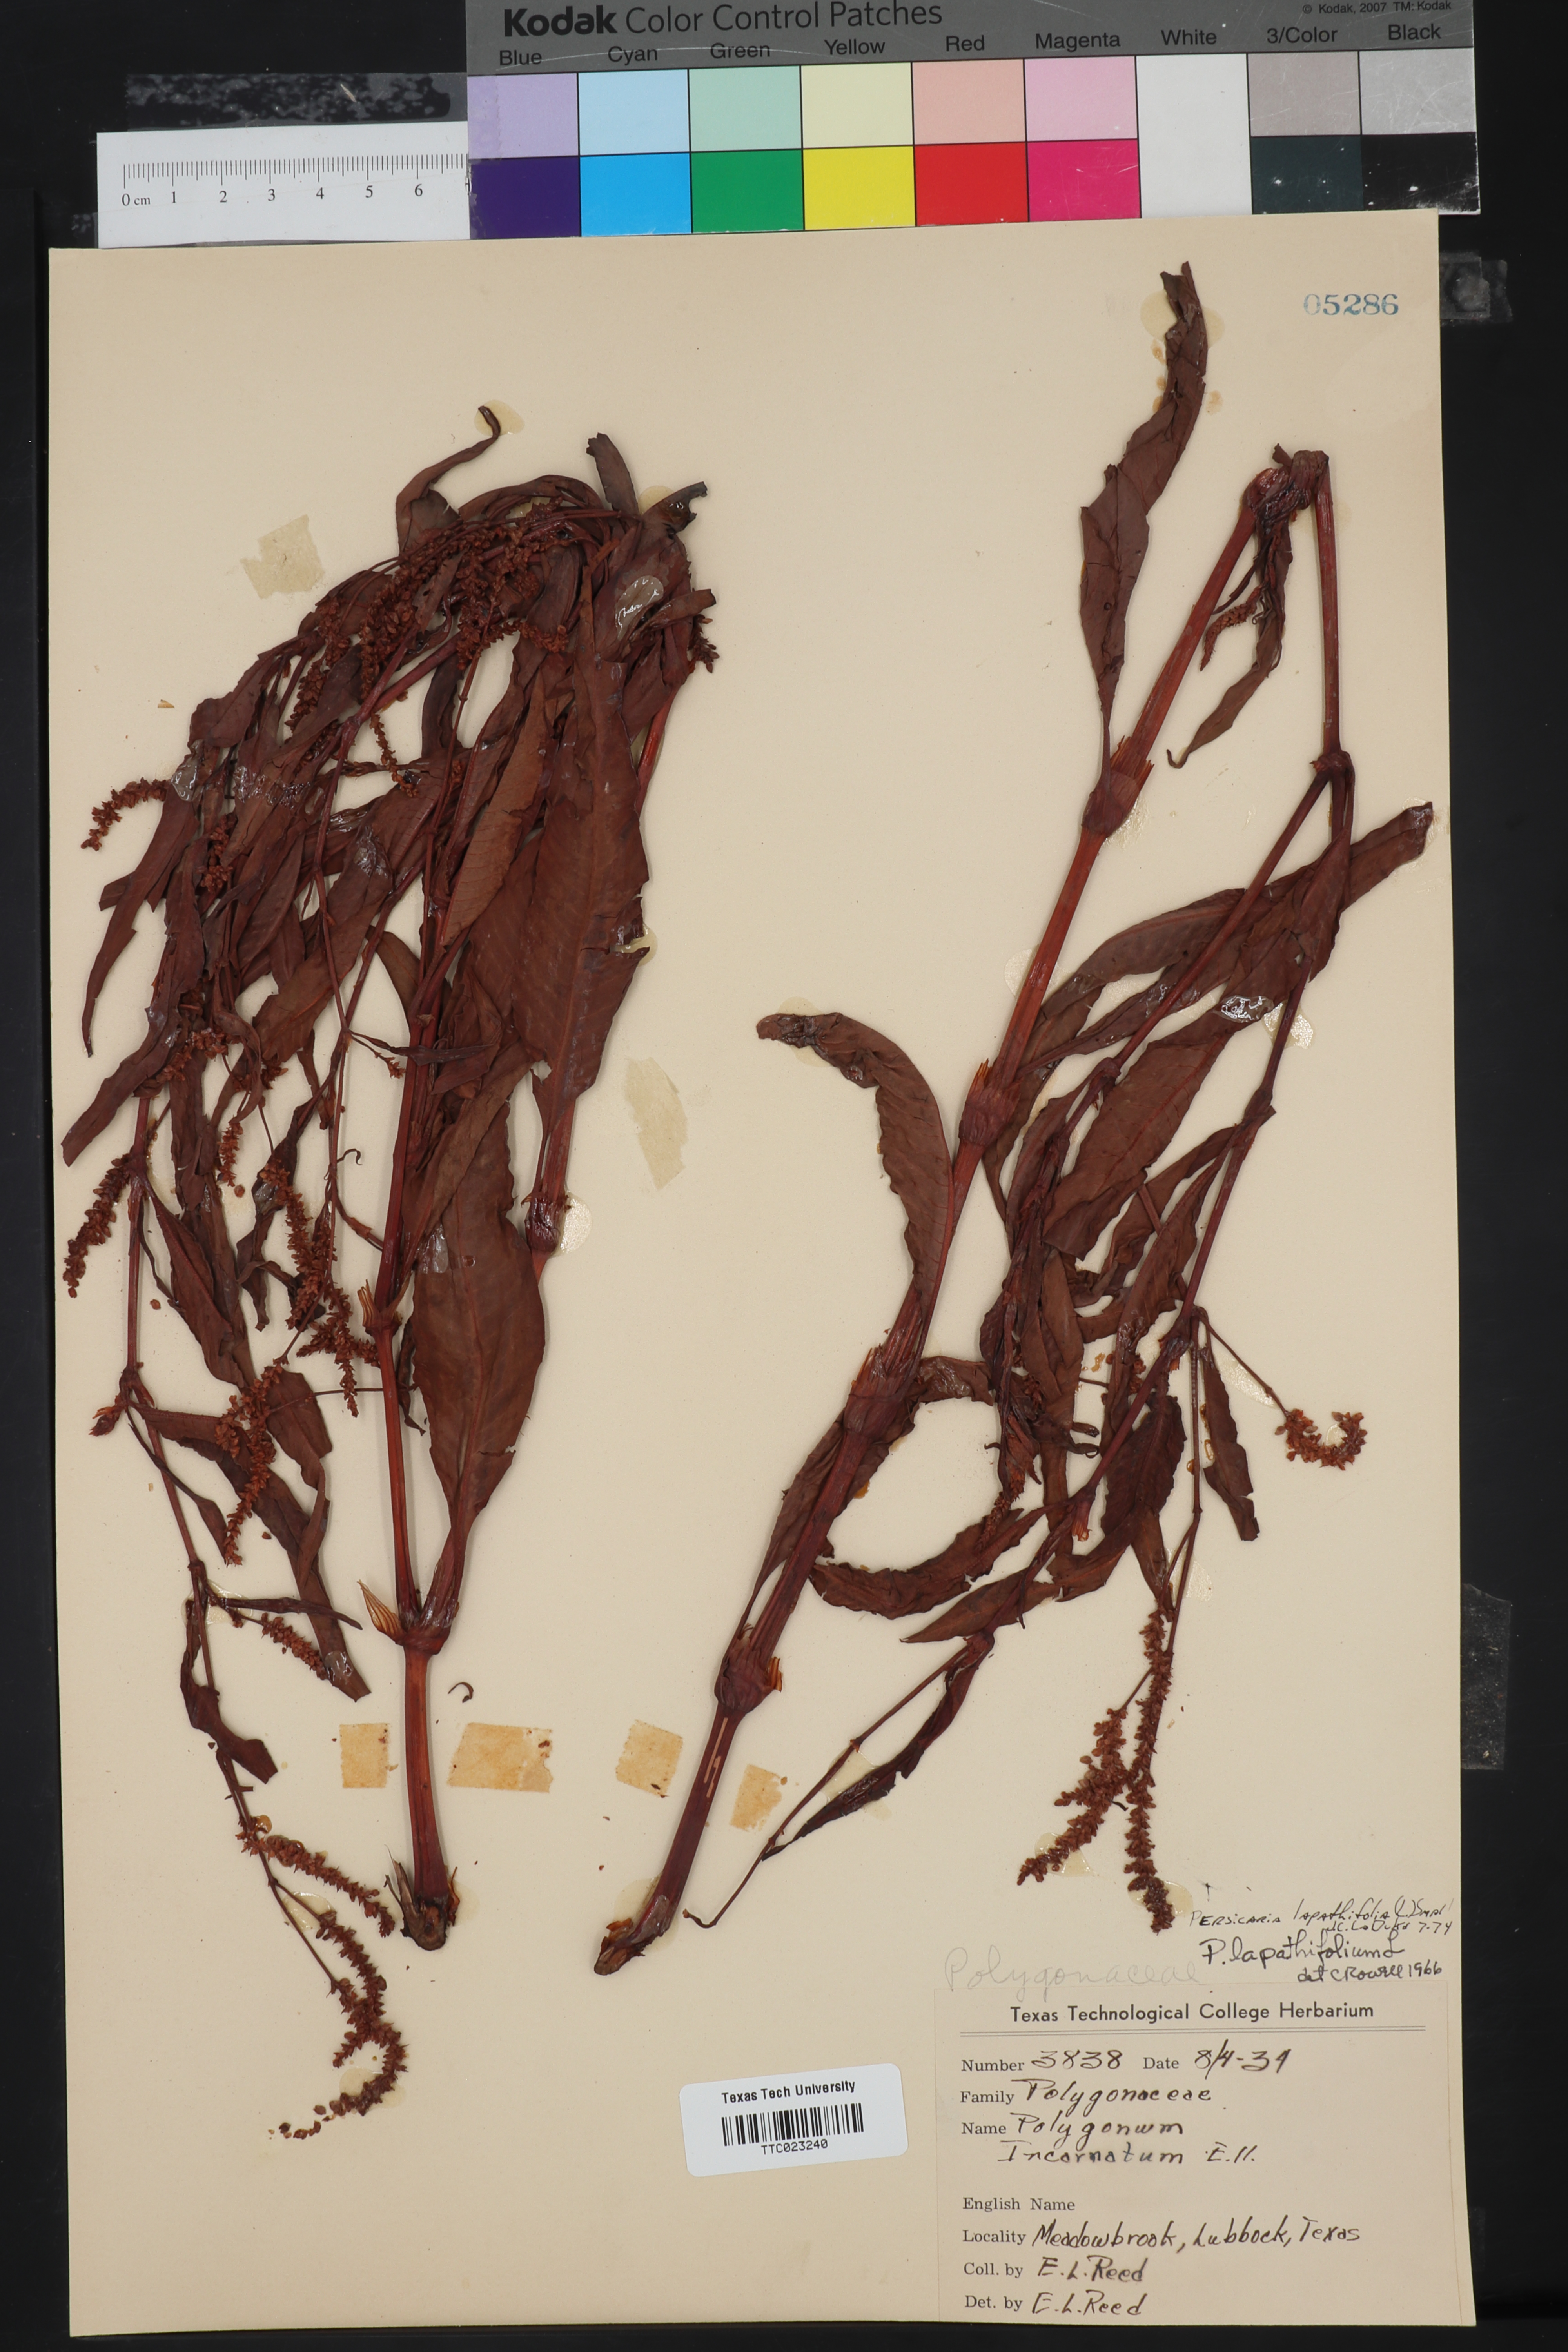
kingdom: Plantae
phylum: Tracheophyta
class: Magnoliopsida
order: Caryophyllales
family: Polygonaceae
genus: Persicaria
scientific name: Persicaria lapathifolia
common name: Curlytop knotweed
